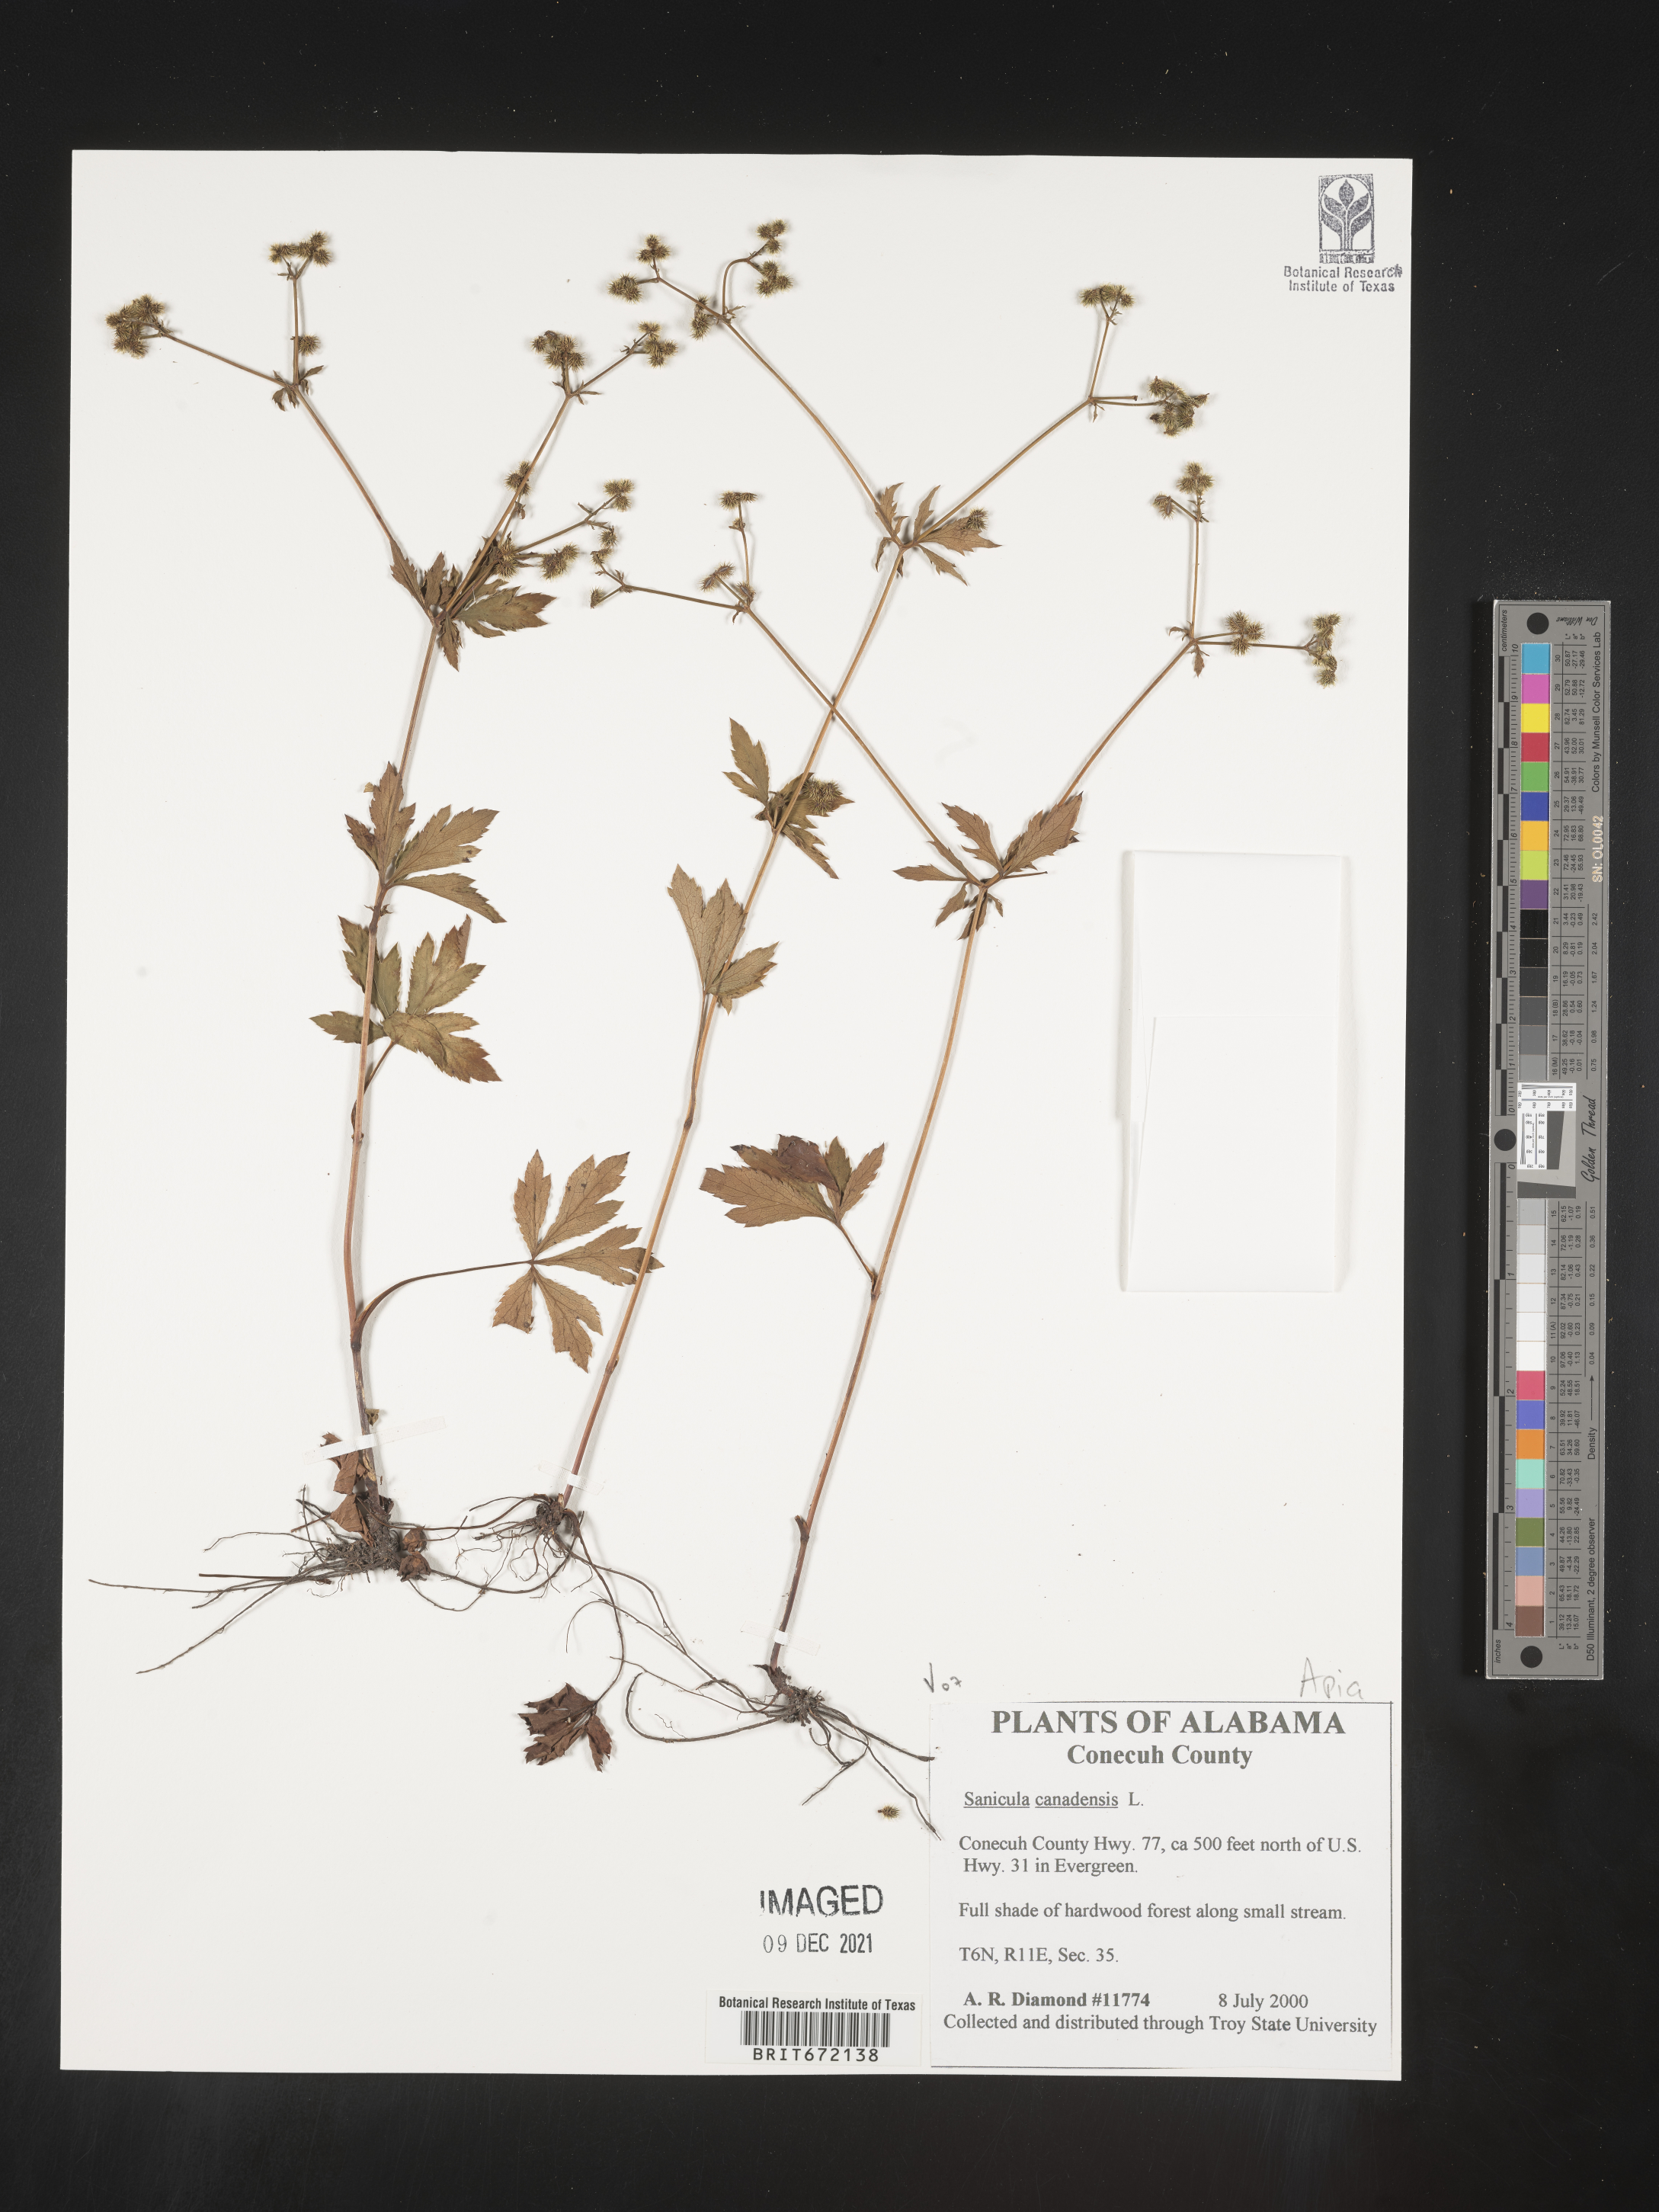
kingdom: Plantae
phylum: Tracheophyta
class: Magnoliopsida
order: Apiales
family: Apiaceae
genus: Sanicula
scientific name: Sanicula canadensis
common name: Canada sanicle
